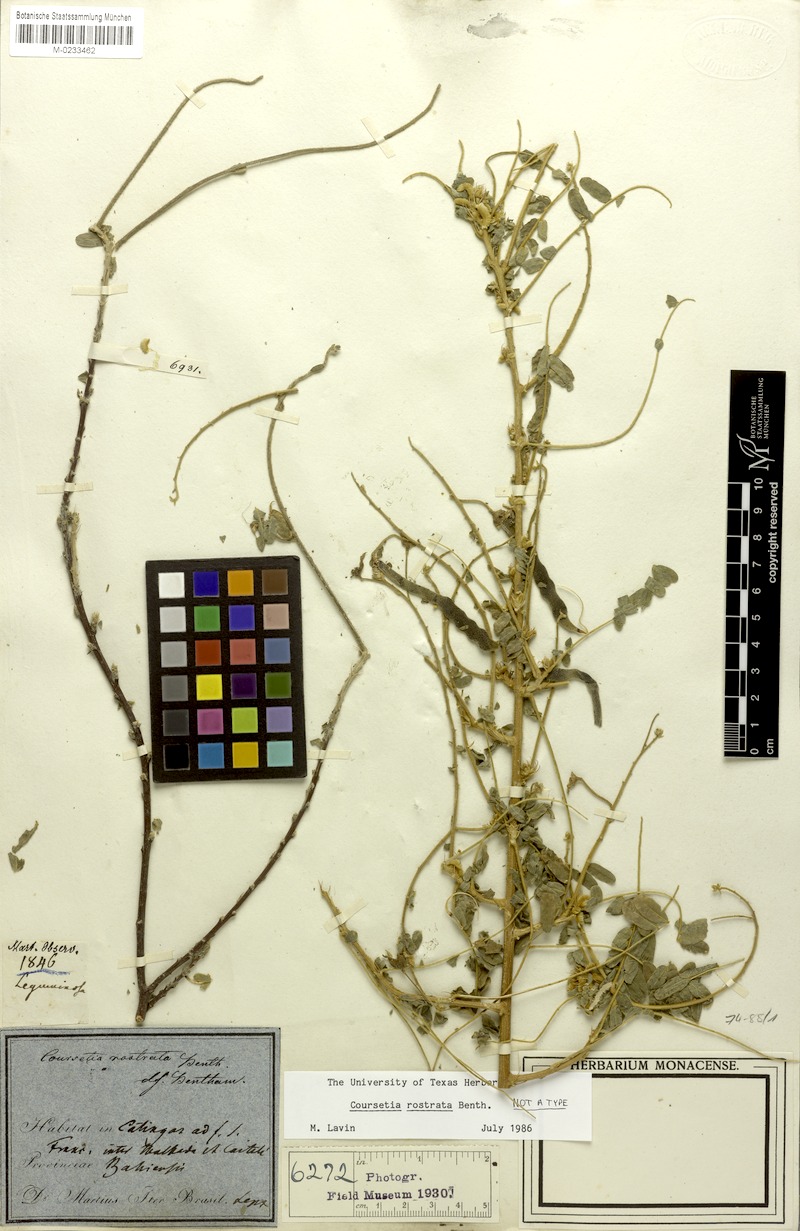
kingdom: Plantae
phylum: Tracheophyta
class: Magnoliopsida
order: Fabales
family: Fabaceae
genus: Coursetia
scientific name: Coursetia rostrata
